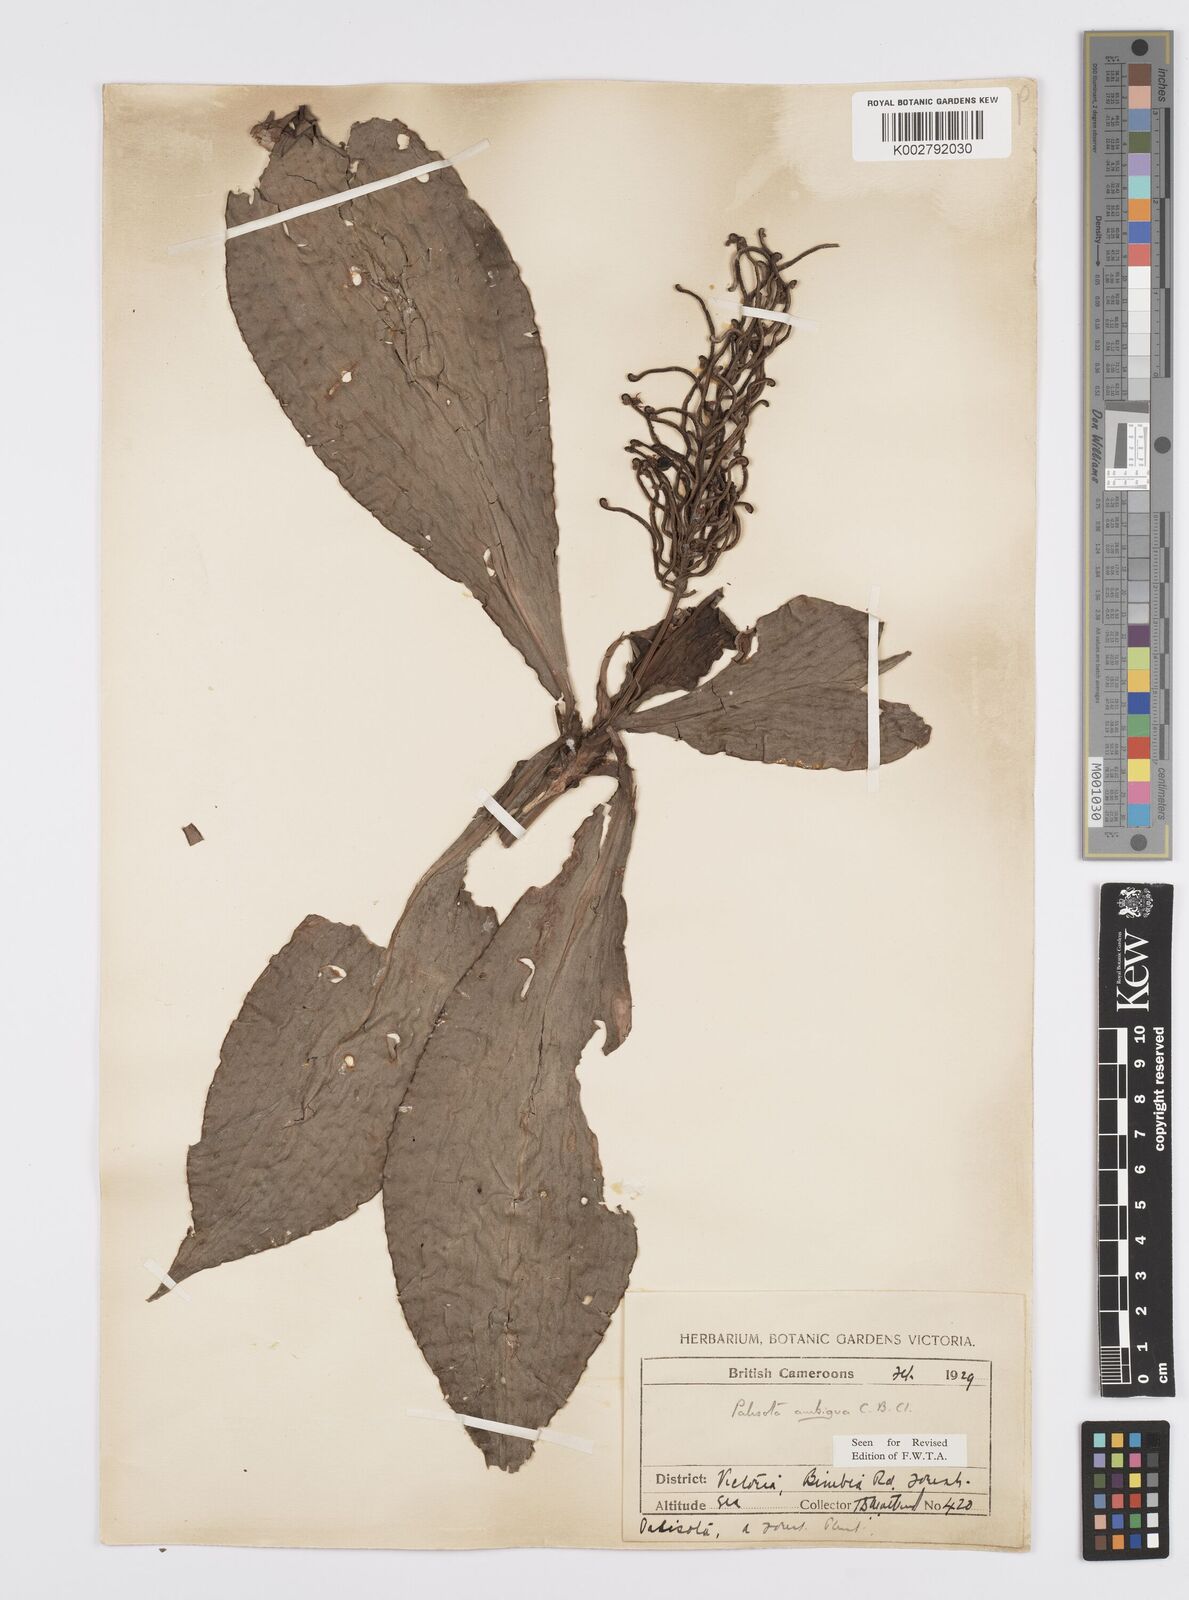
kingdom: Plantae
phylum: Tracheophyta
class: Liliopsida
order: Commelinales
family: Commelinaceae
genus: Palisota
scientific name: Palisota ambigua
